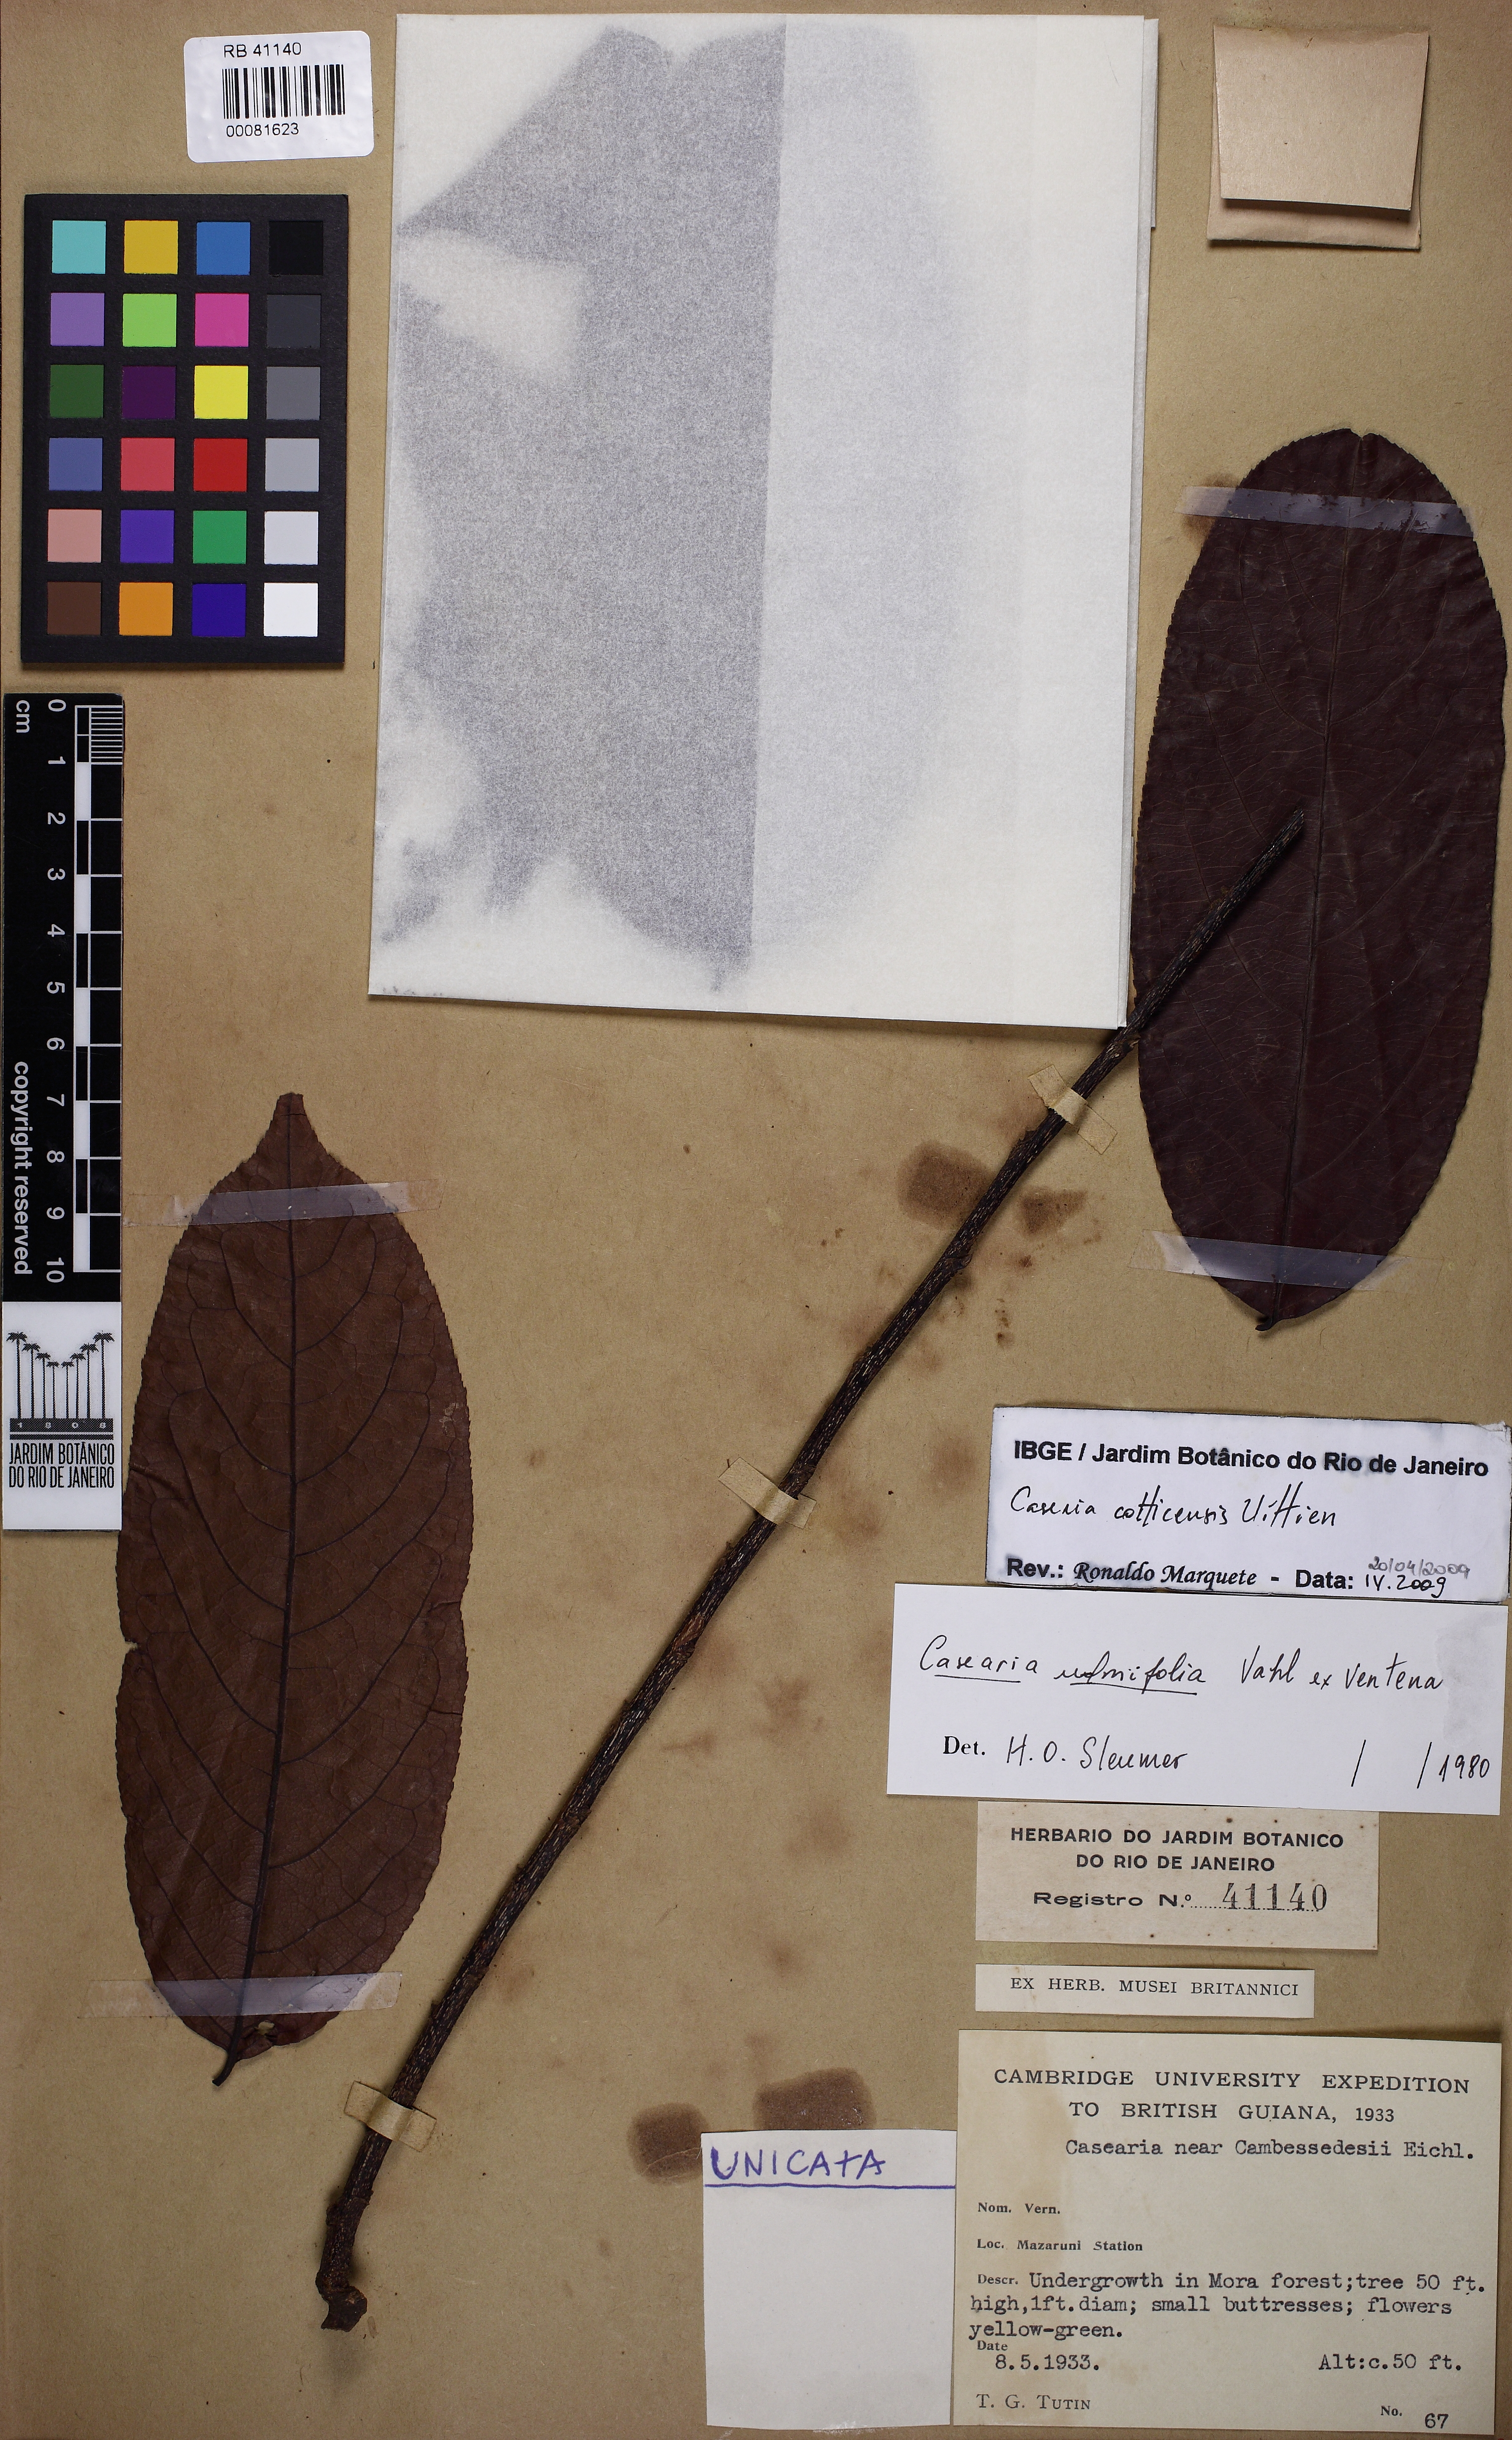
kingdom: Plantae
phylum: Tracheophyta
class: Magnoliopsida
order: Malpighiales
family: Salicaceae
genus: Casearia
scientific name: Casearia cotticensis
